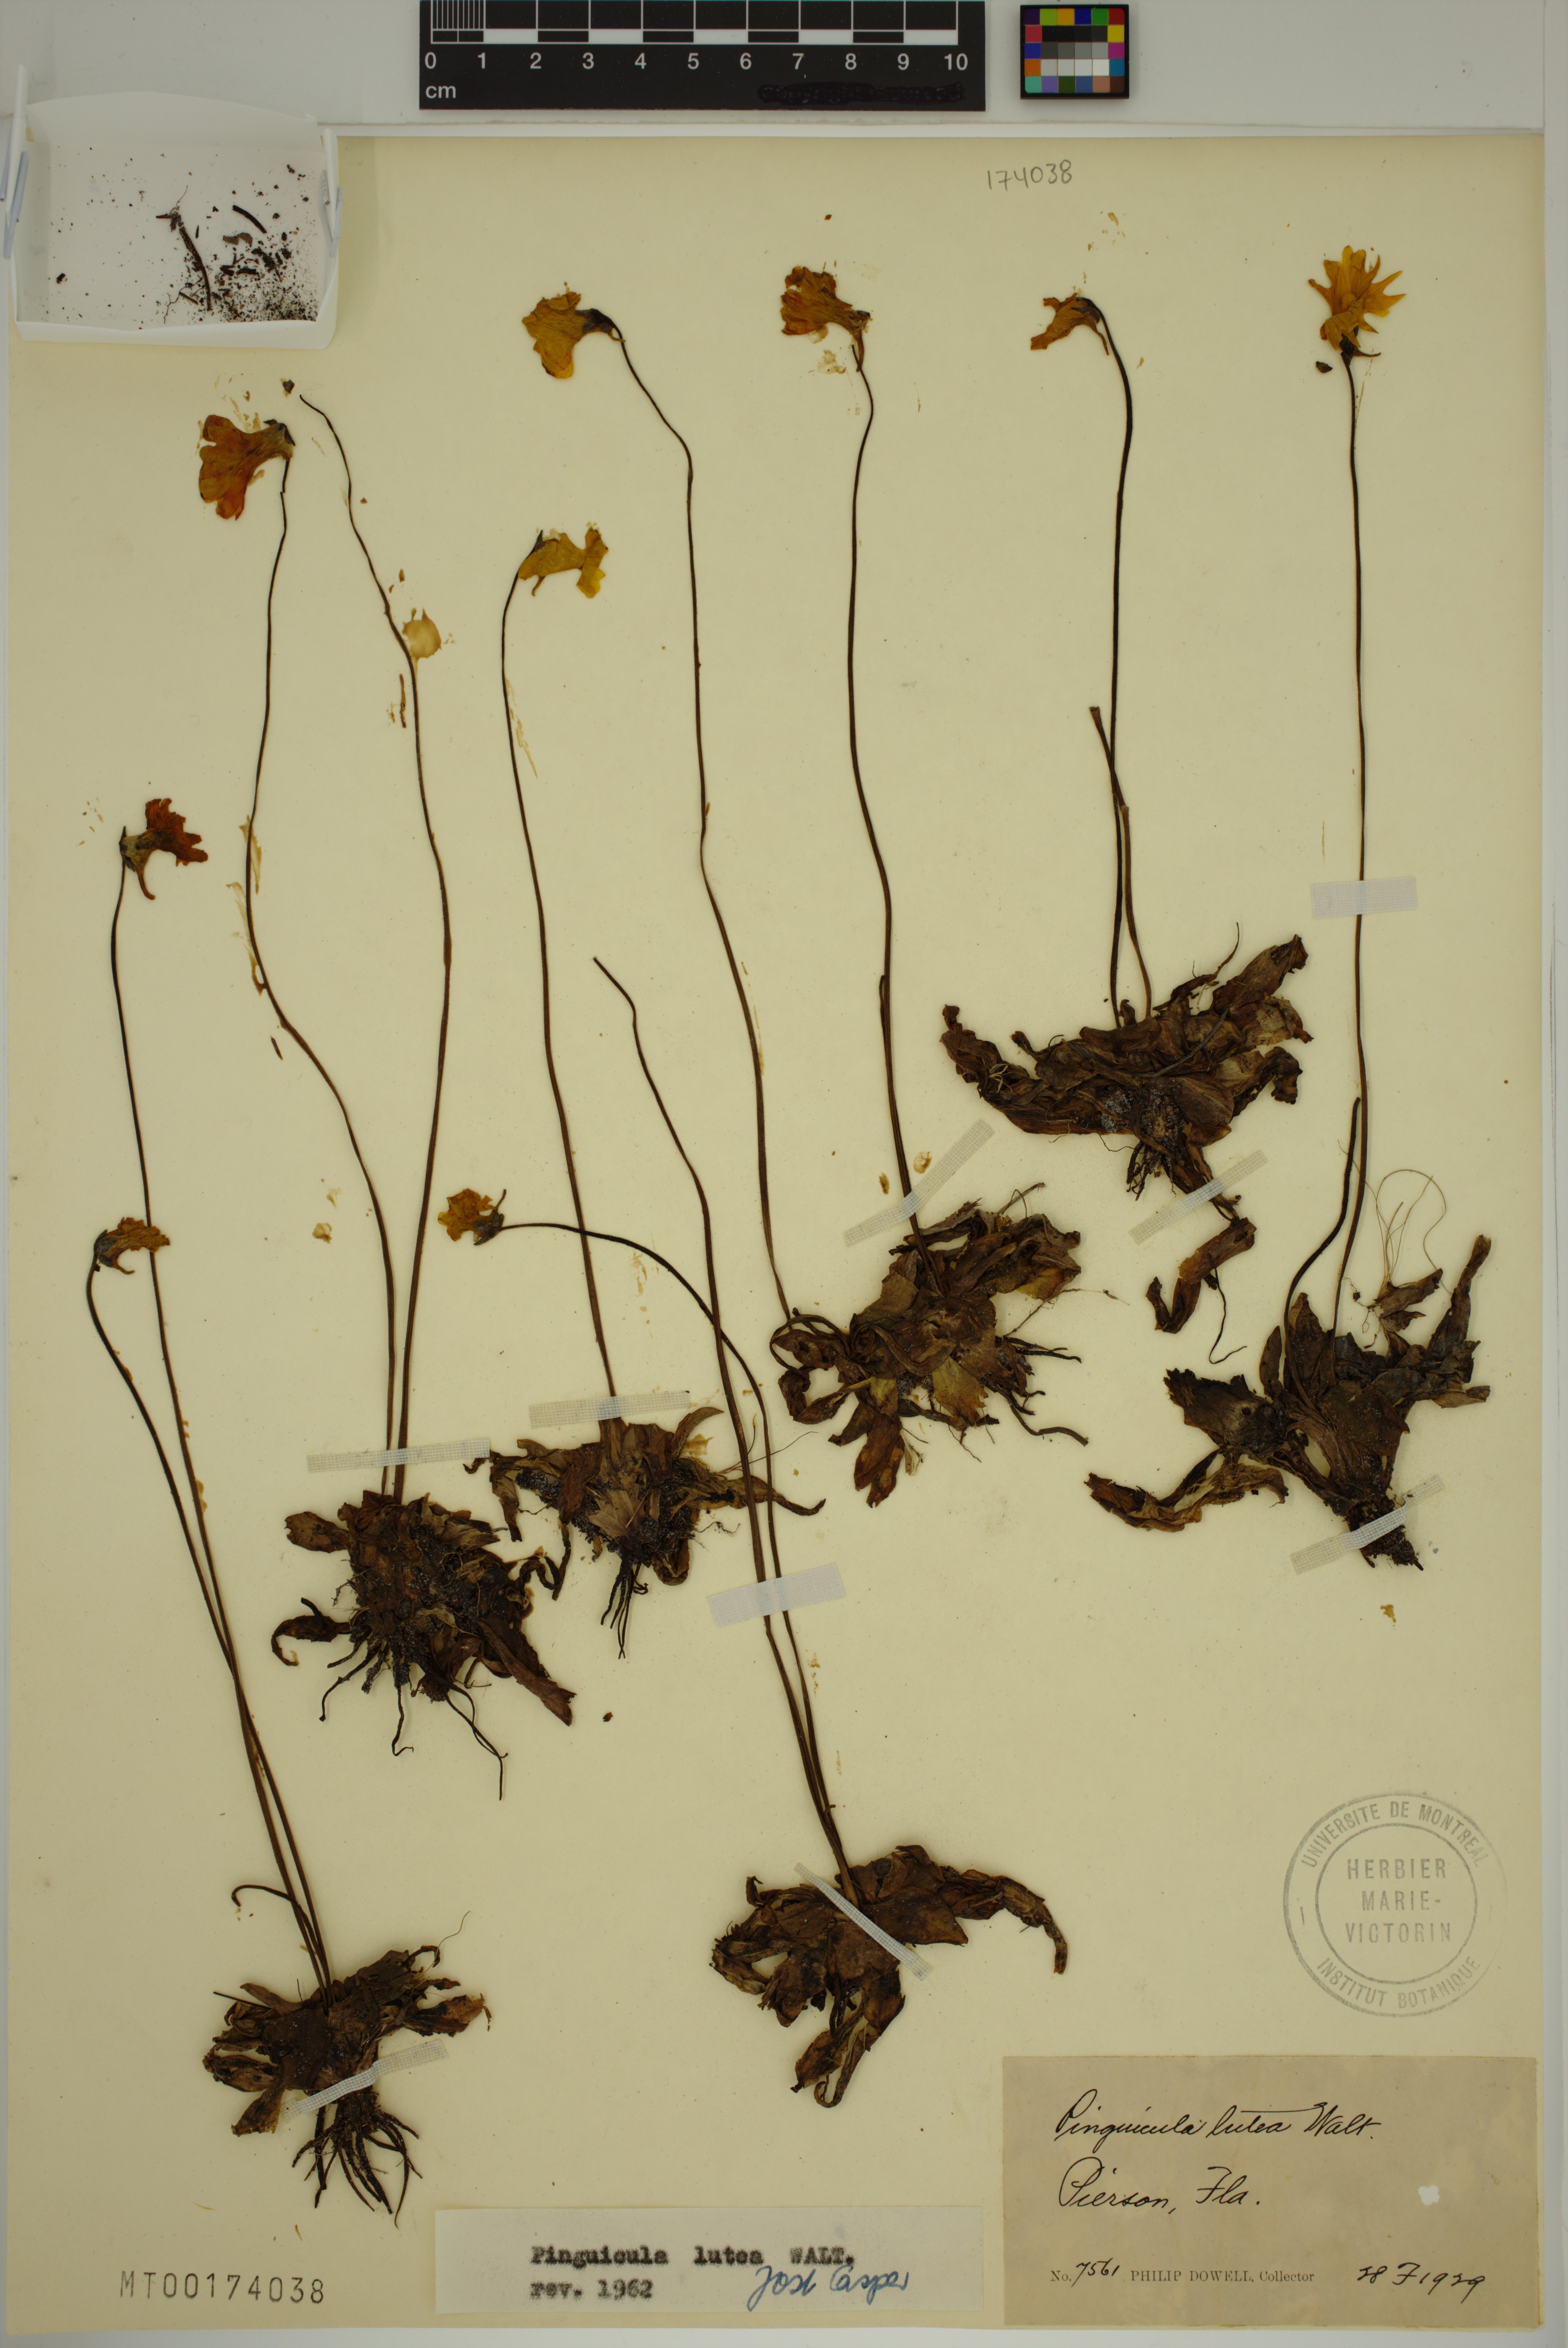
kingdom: Plantae
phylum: Tracheophyta
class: Magnoliopsida
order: Lamiales
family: Lentibulariaceae
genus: Pinguicula
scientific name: Pinguicula lutea
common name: Yellow butterwort
